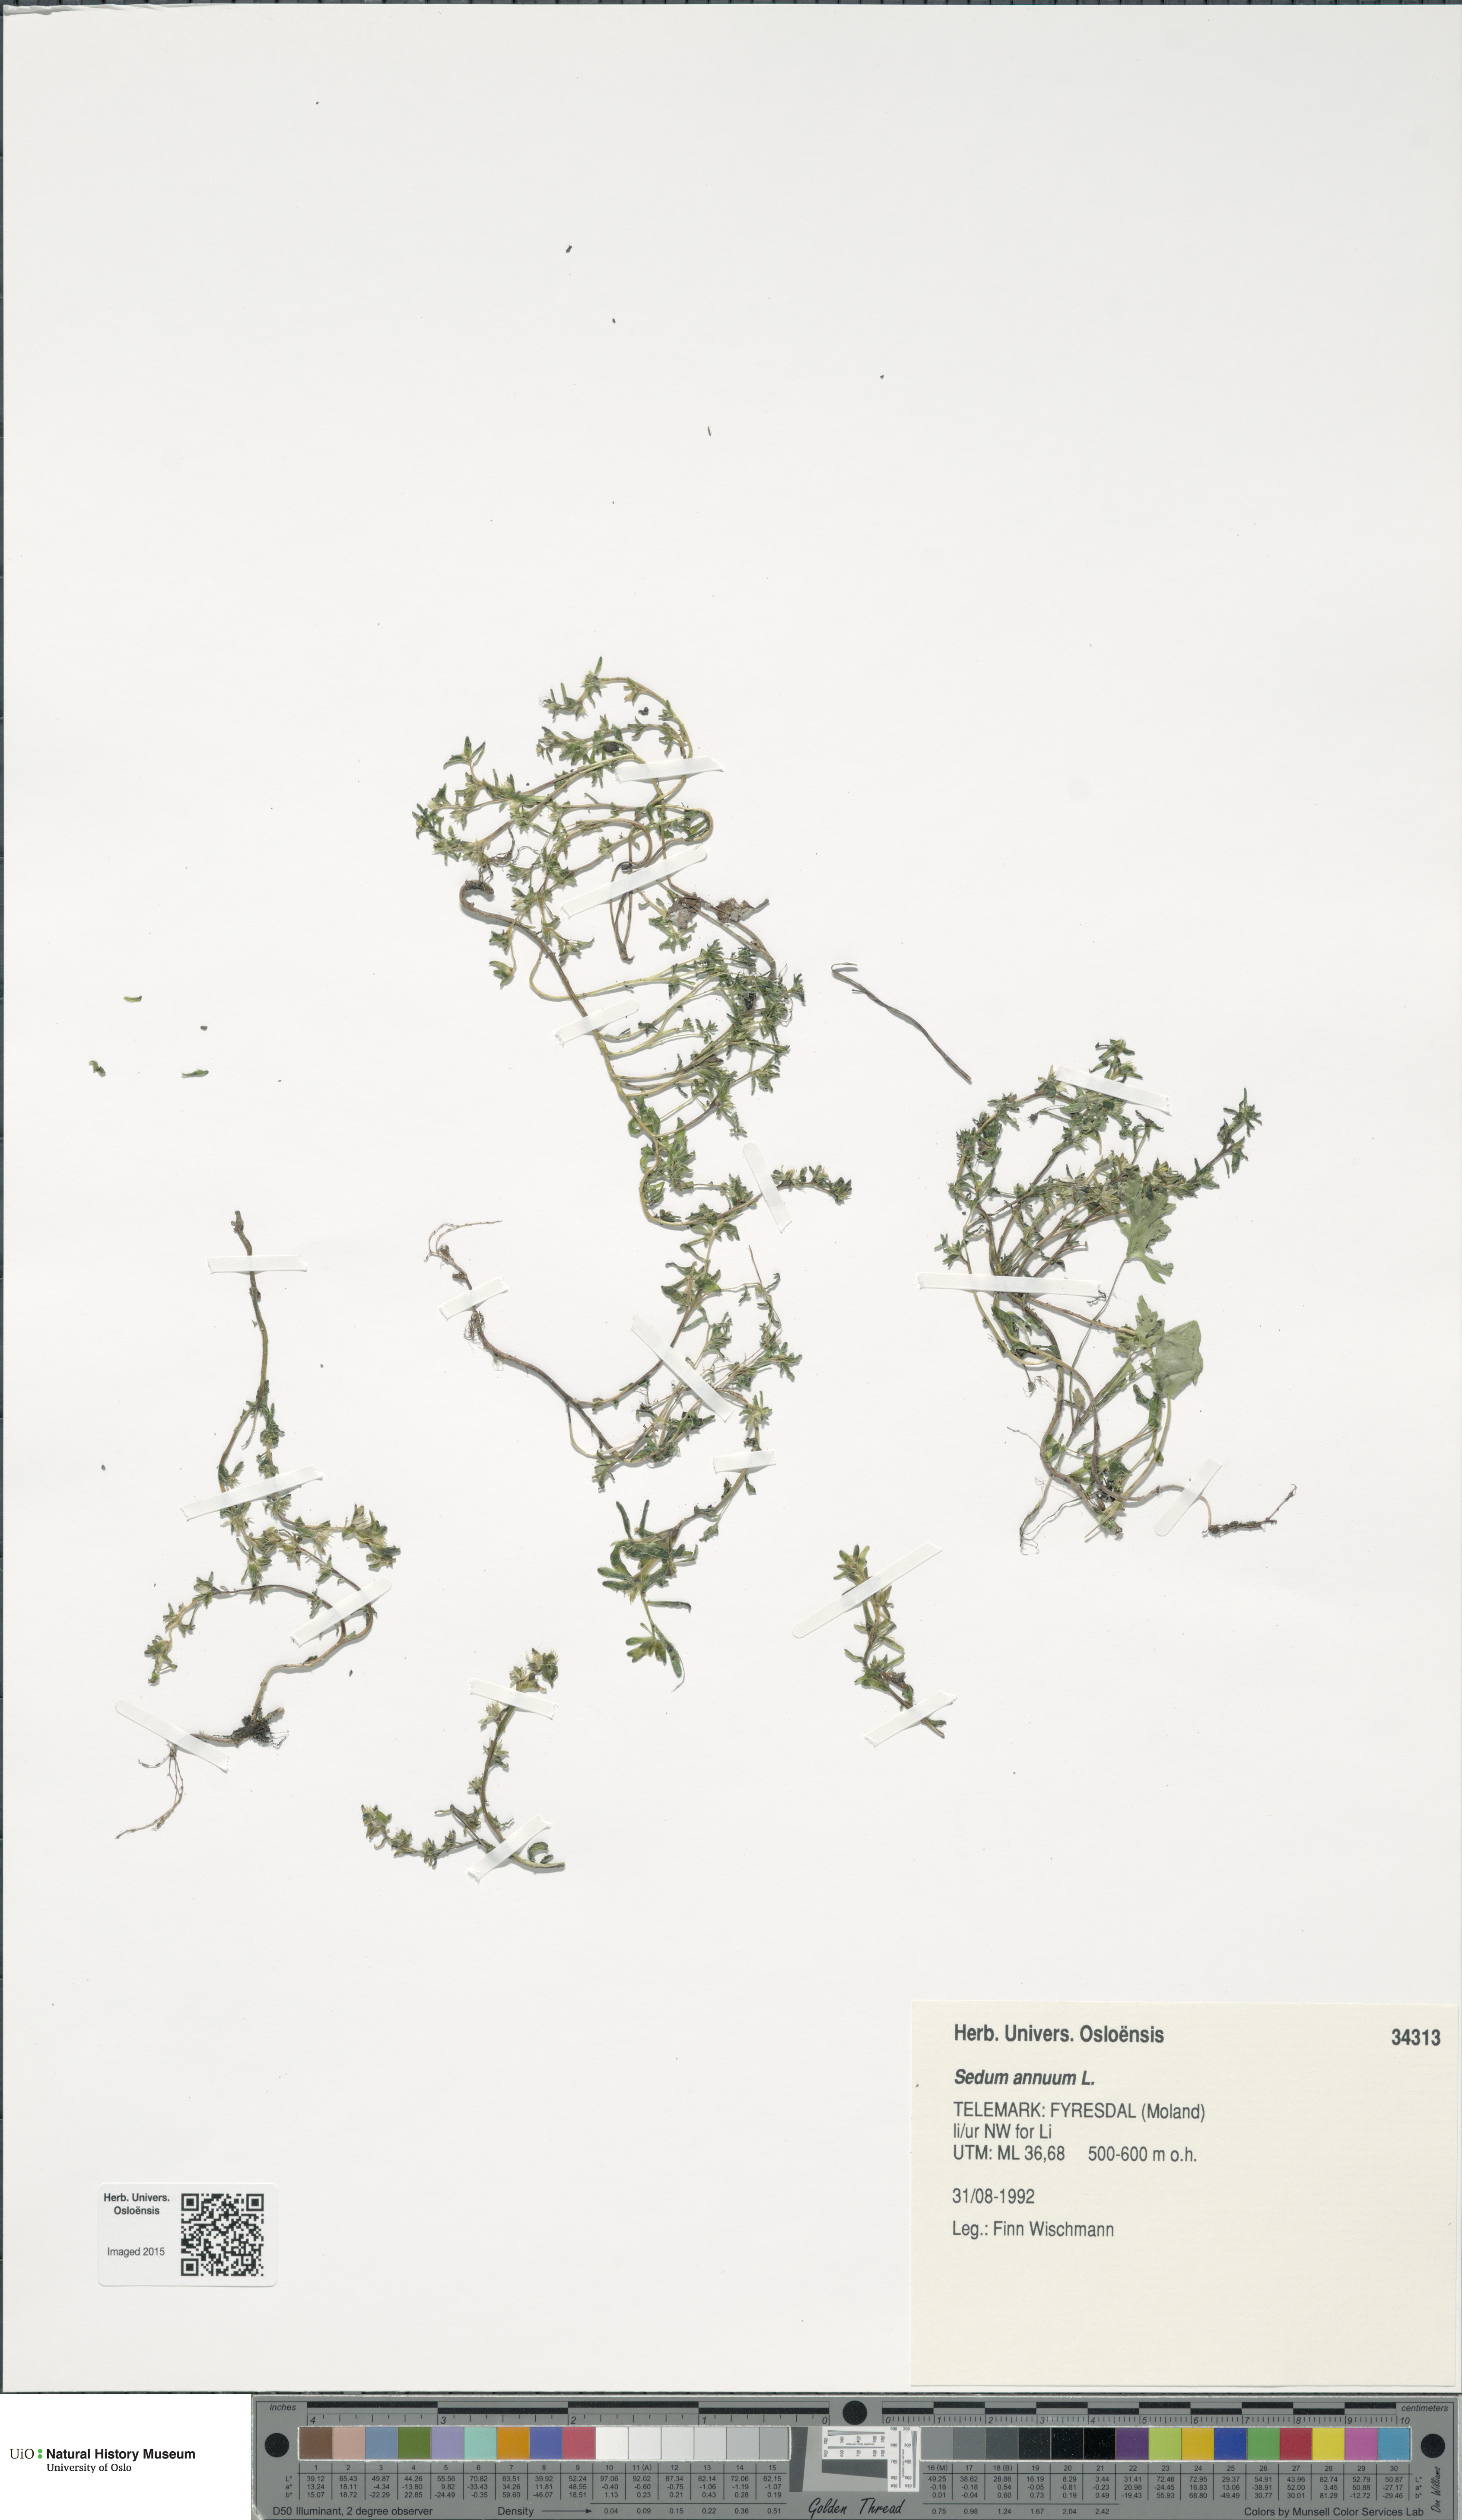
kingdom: Plantae
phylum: Tracheophyta
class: Magnoliopsida
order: Saxifragales
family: Crassulaceae
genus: Sedum
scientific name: Sedum annuum
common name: Annual stonecrop
